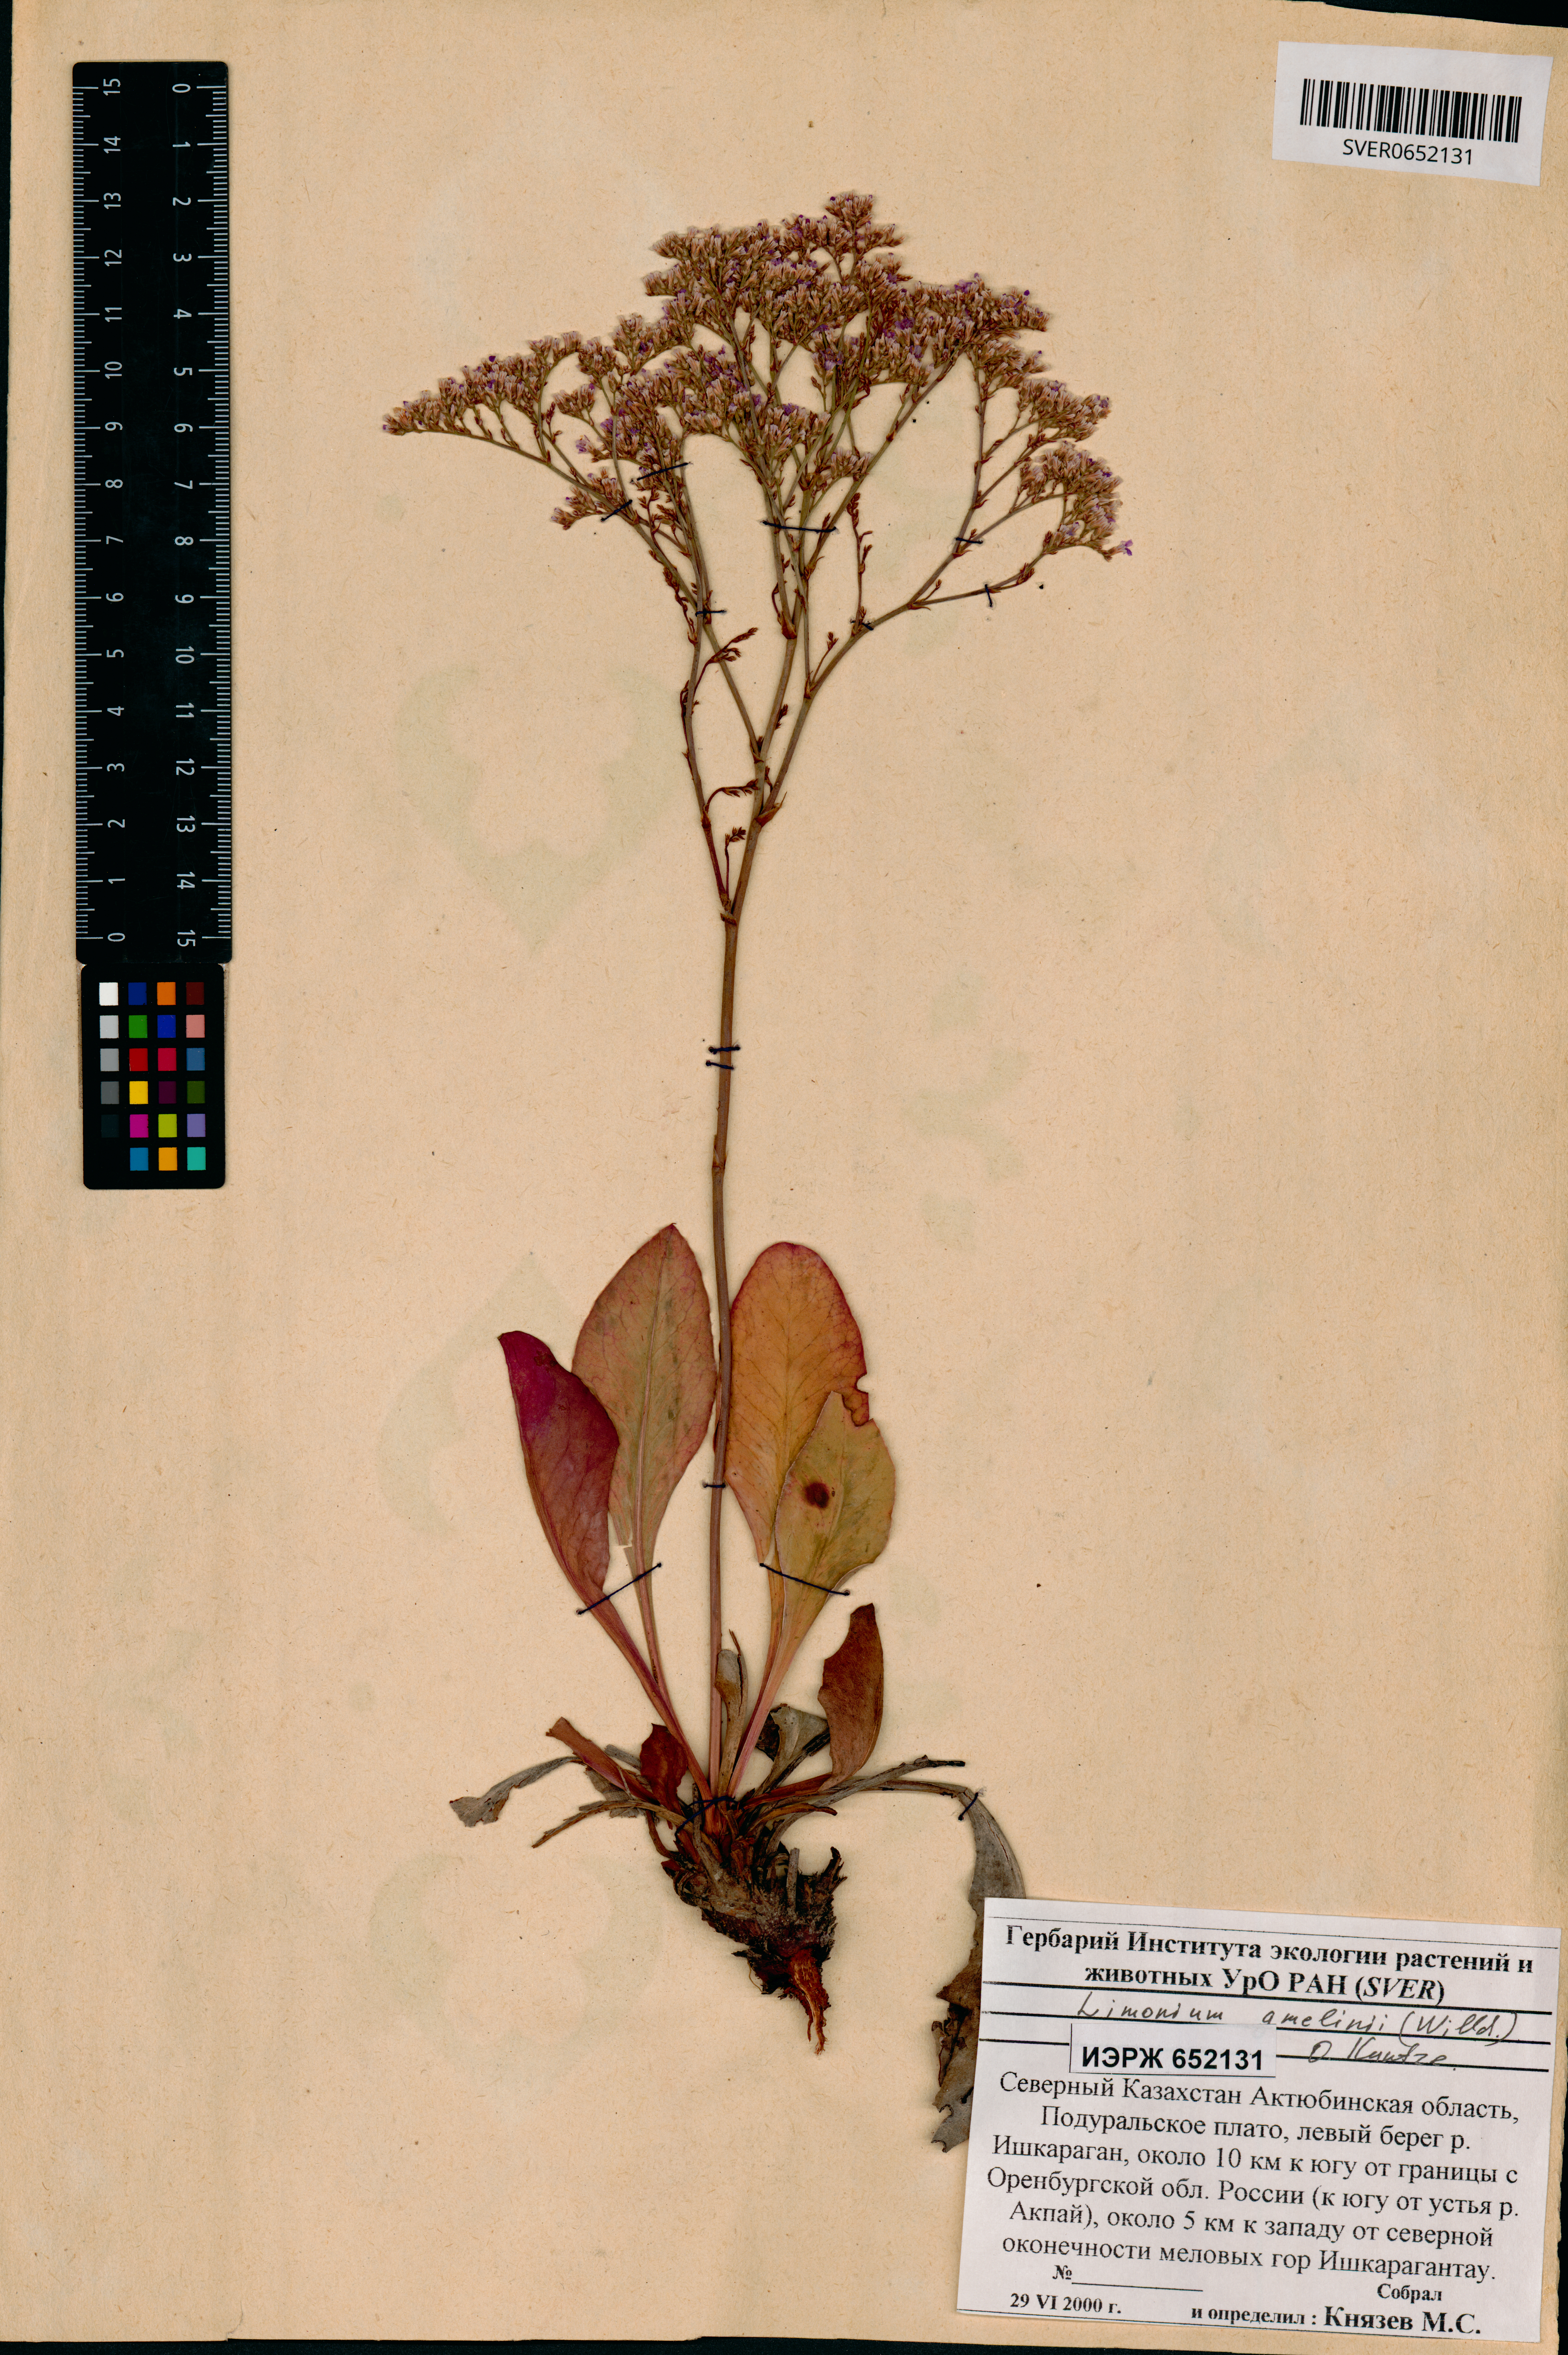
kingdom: Plantae
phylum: Tracheophyta
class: Magnoliopsida
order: Caryophyllales
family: Plumbaginaceae
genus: Limonium
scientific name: Limonium gmelini
